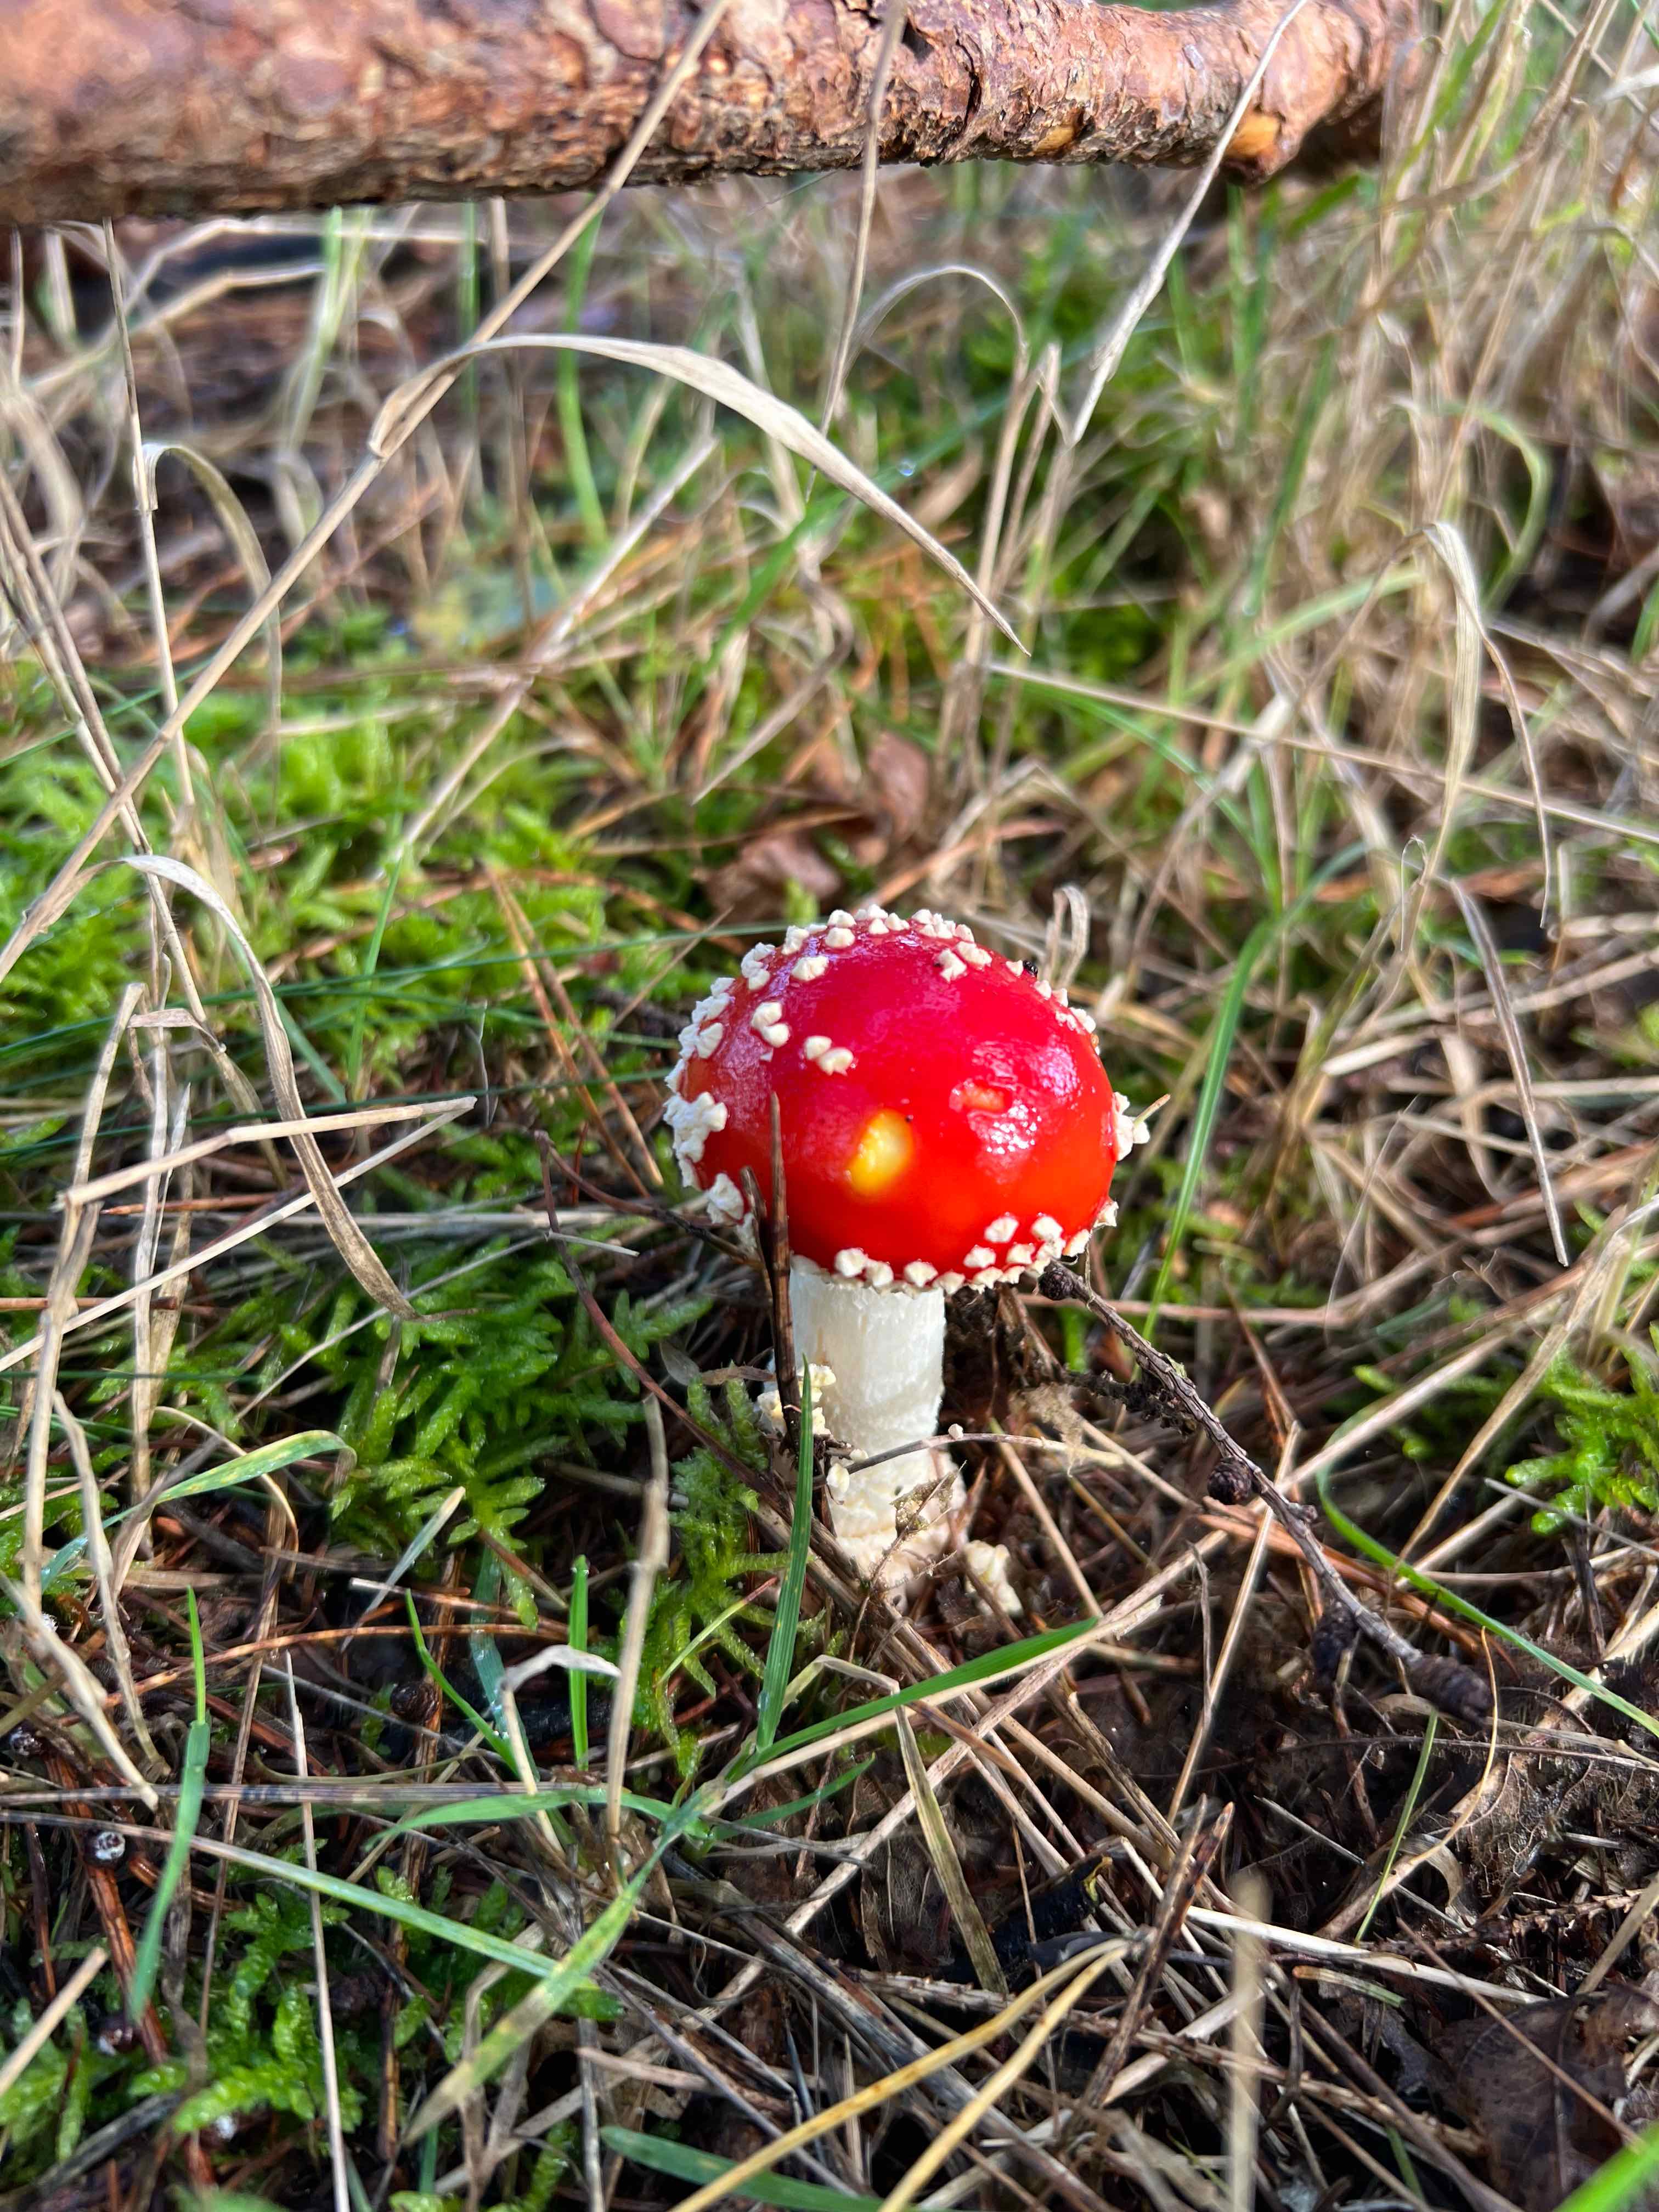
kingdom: Fungi
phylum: Basidiomycota
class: Agaricomycetes
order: Agaricales
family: Amanitaceae
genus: Amanita
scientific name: Amanita muscaria
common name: rød fluesvamp
